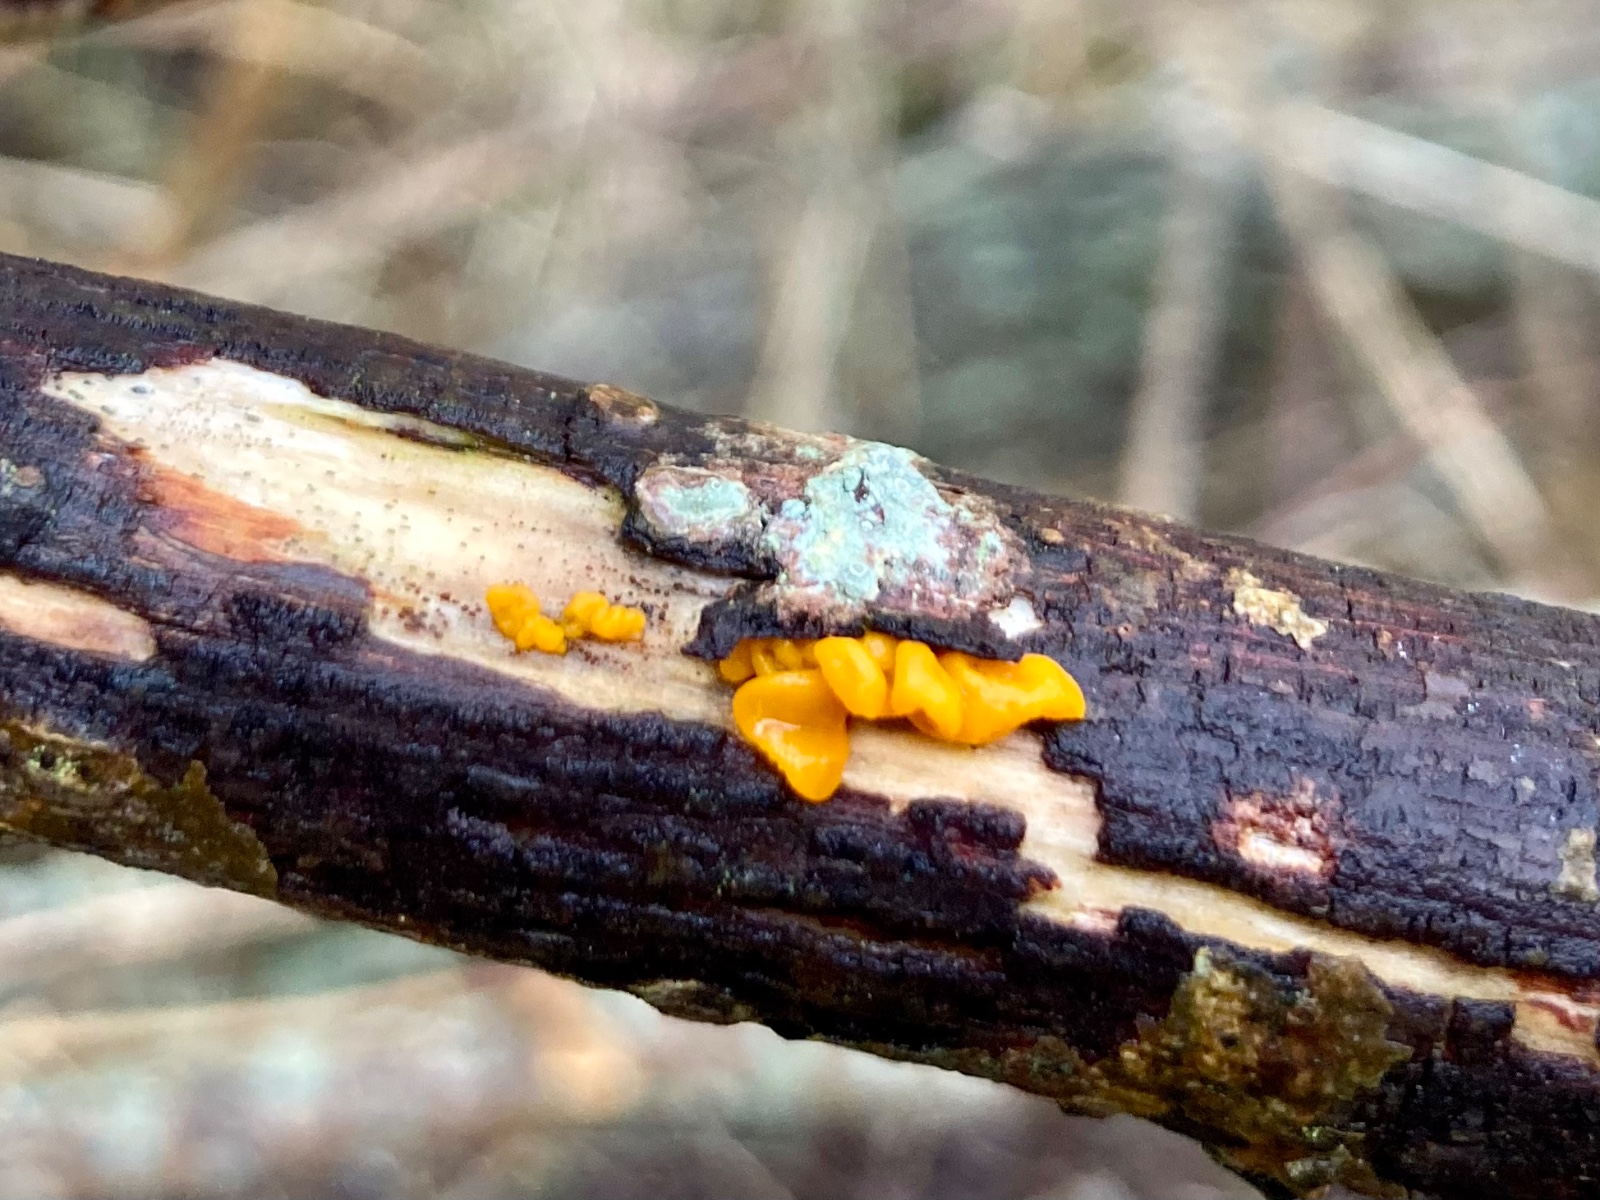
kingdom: Fungi
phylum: Basidiomycota
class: Tremellomycetes
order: Tremellales
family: Tremellaceae
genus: Tremella
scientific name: Tremella mesenterica
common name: gul bævresvamp
